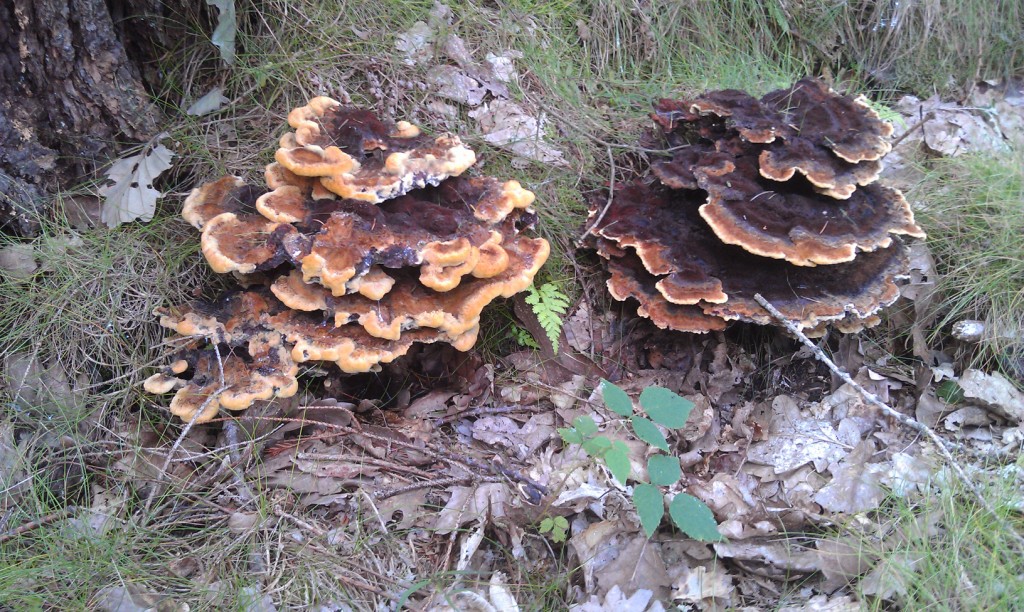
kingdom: Fungi
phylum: Basidiomycota
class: Agaricomycetes
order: Polyporales
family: Laetiporaceae
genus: Phaeolus
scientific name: Phaeolus schweinitzii
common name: brunporesvamp
